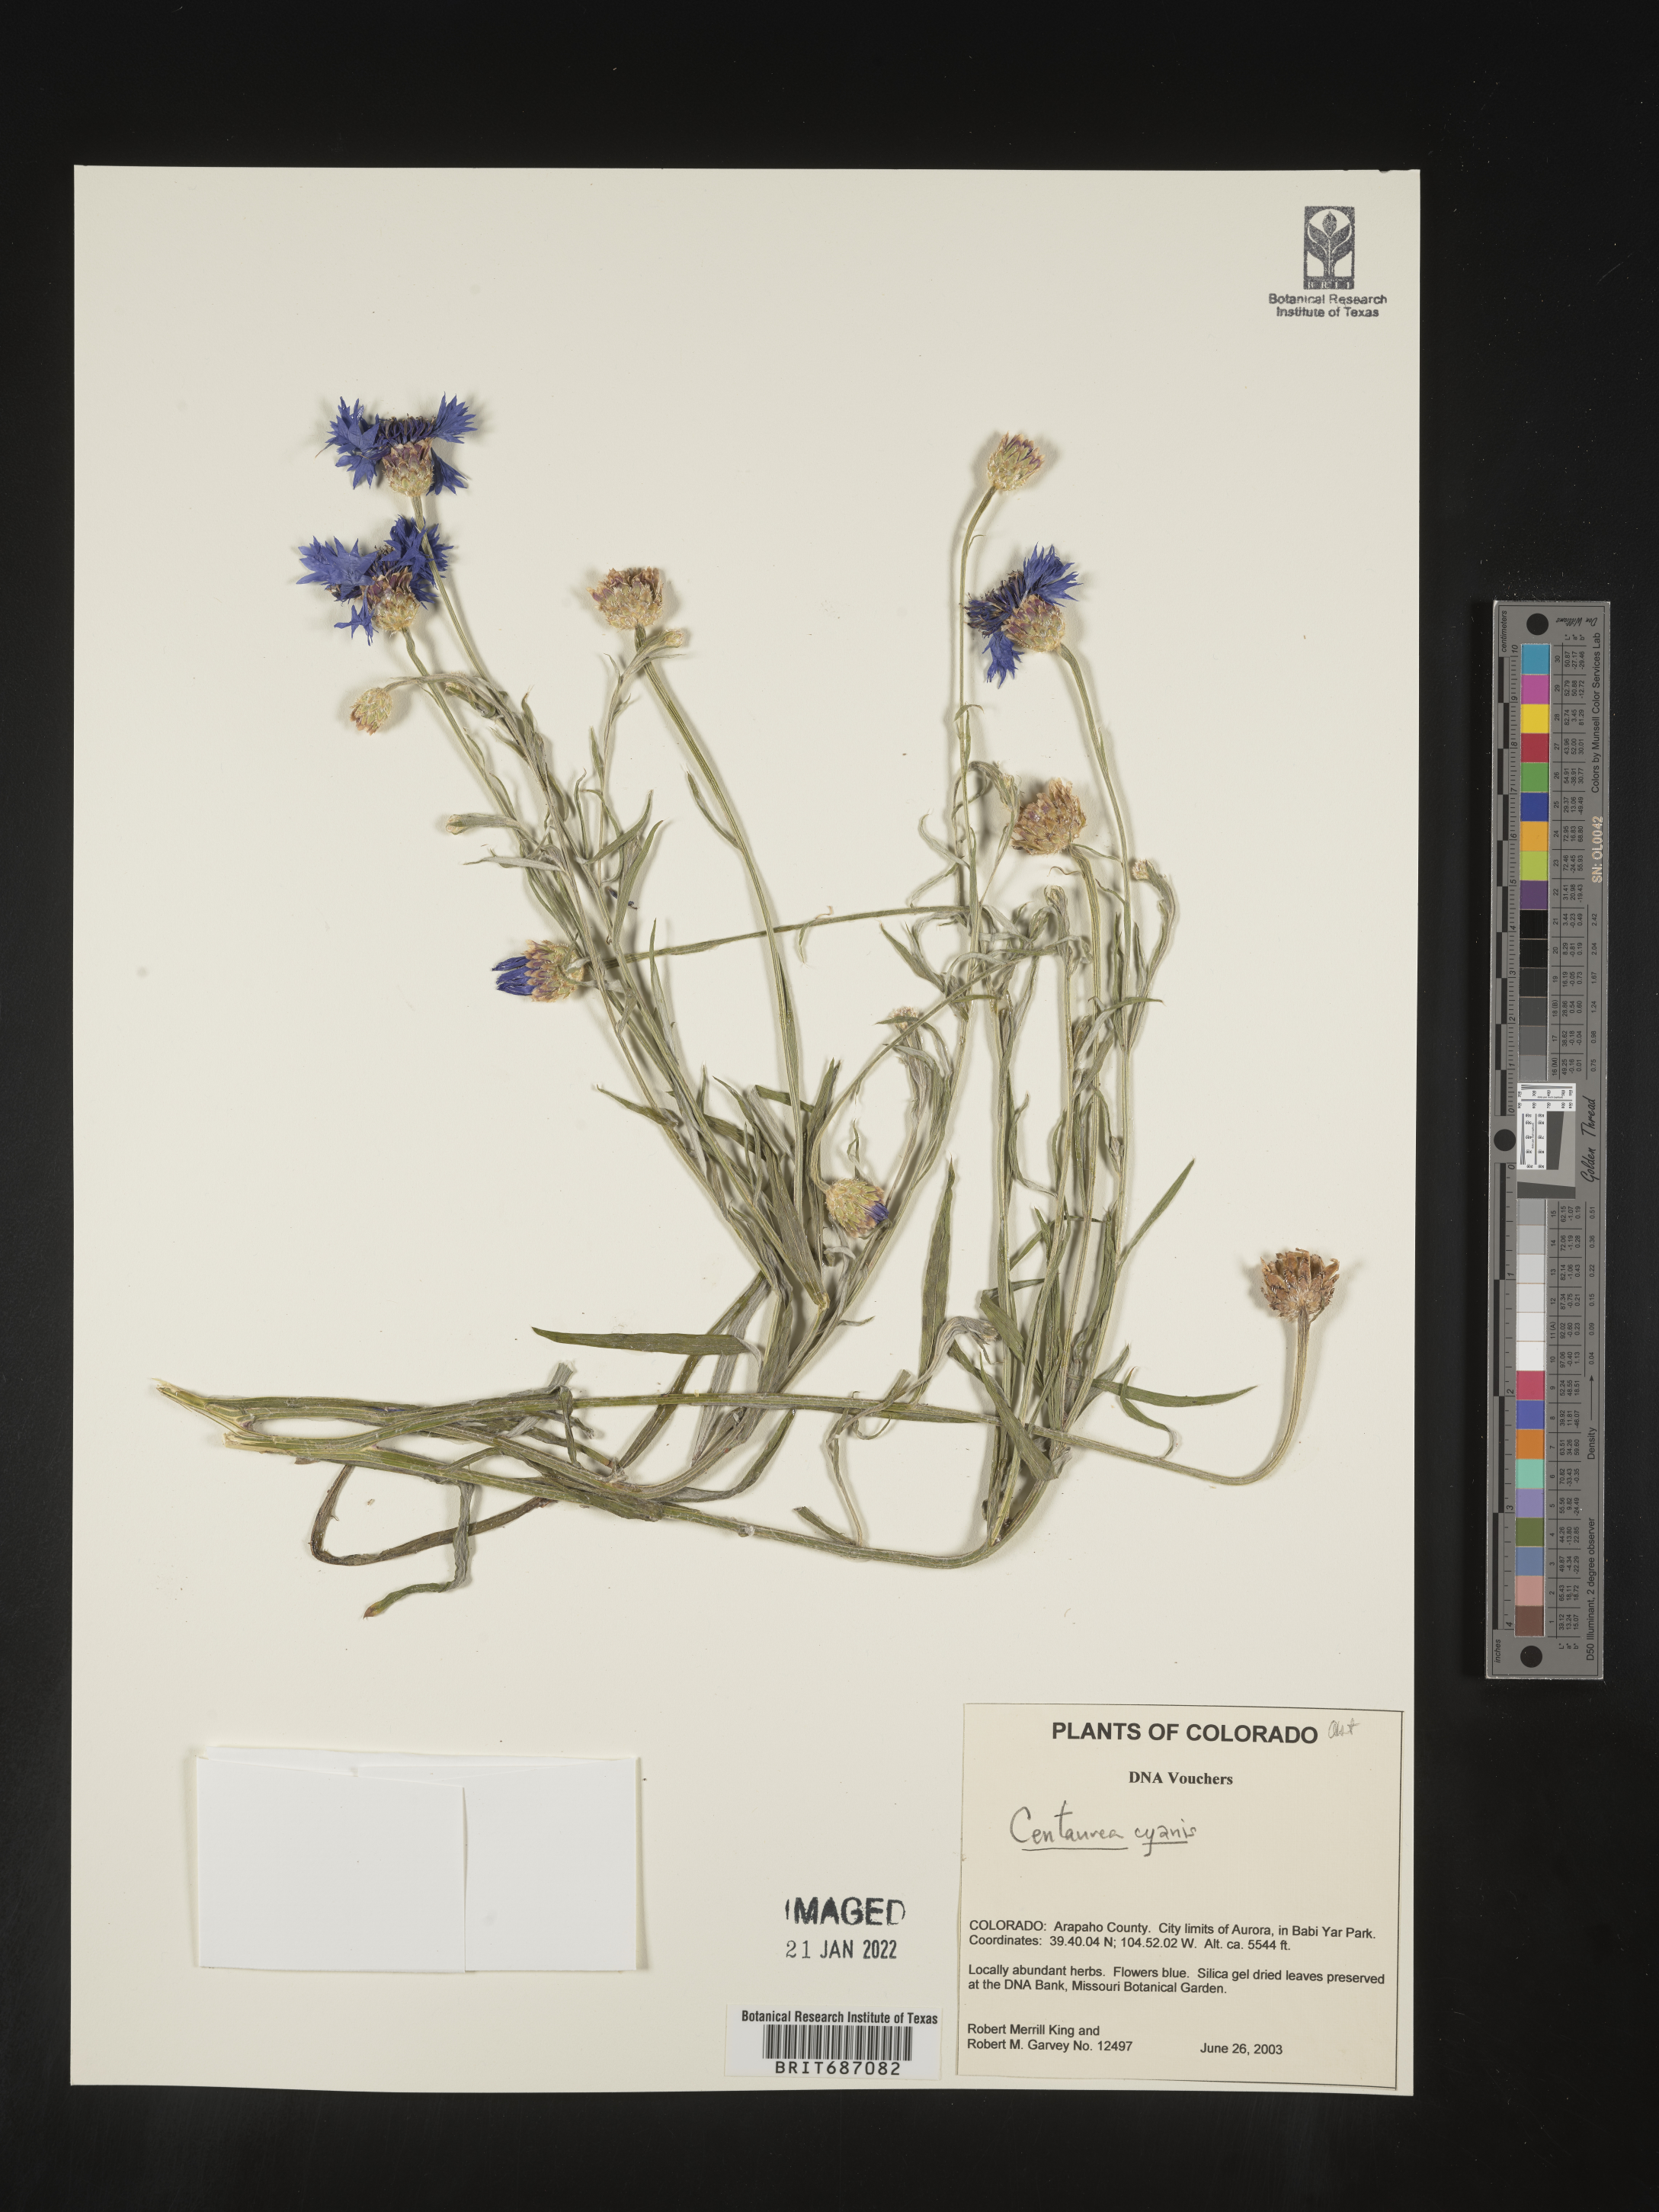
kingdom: Plantae
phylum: Tracheophyta
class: Magnoliopsida
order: Asterales
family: Asteraceae
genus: Centaurea
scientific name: Centaurea cyanus
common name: Cornflower
